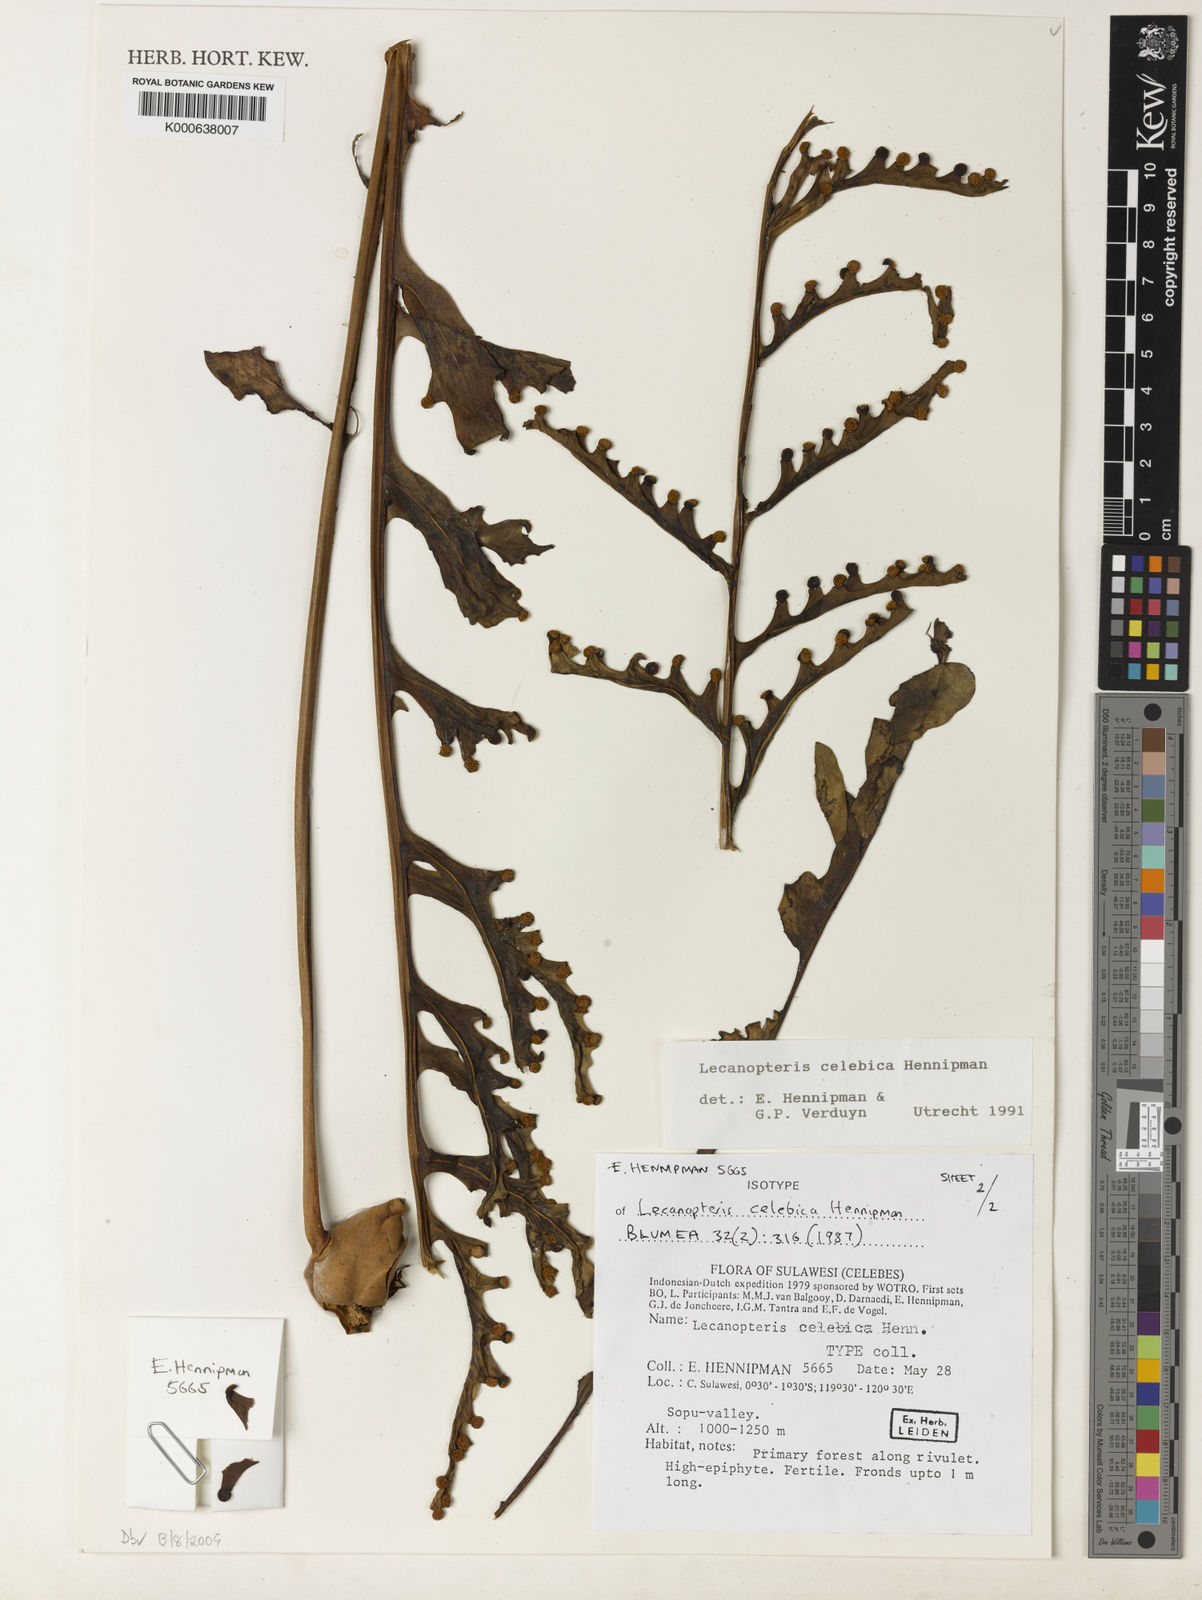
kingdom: Plantae
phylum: Tracheophyta
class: Polypodiopsida
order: Polypodiales
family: Polypodiaceae
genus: Lecanopteris
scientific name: Lecanopteris celebica
